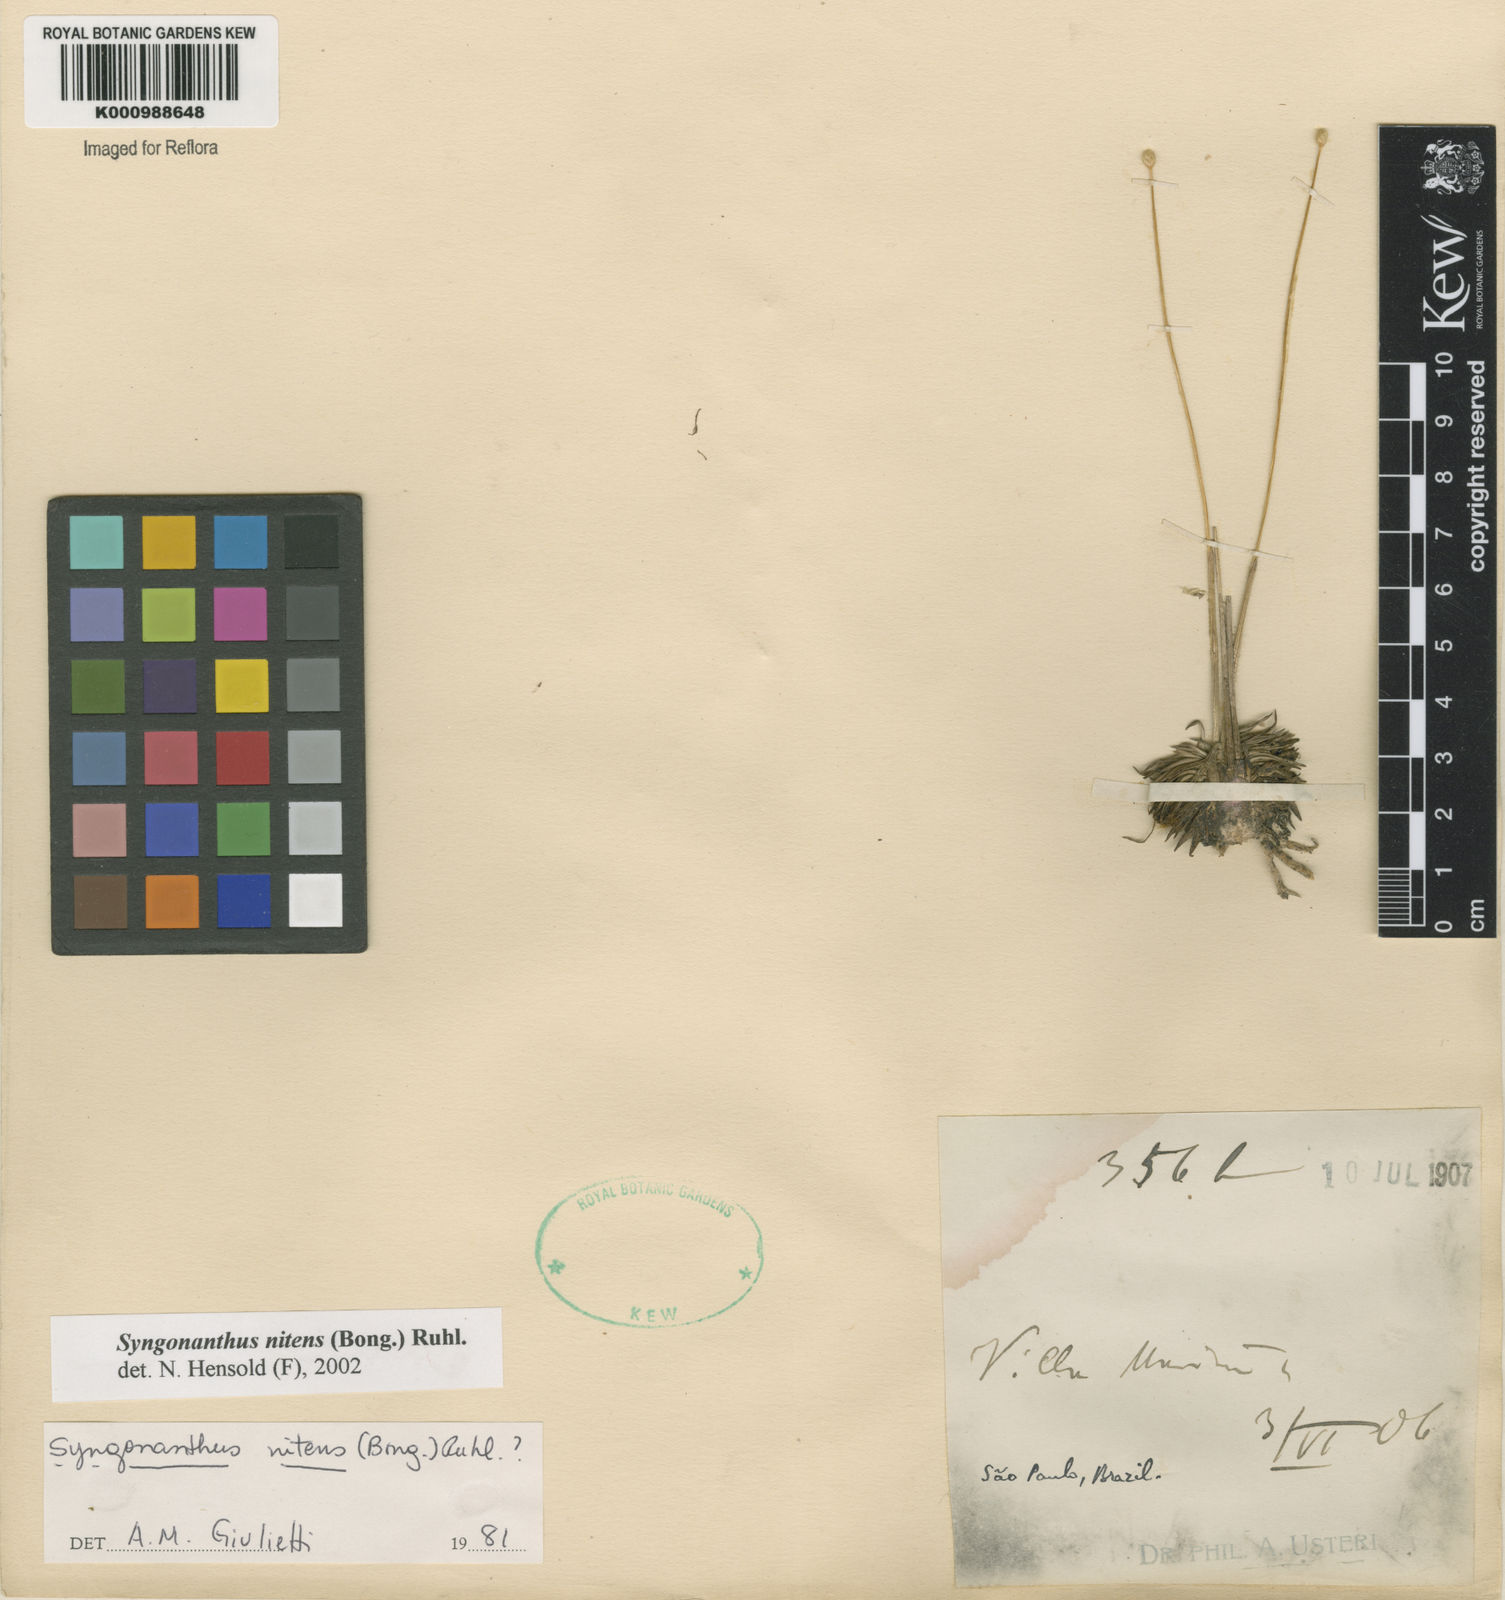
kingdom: Plantae
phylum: Tracheophyta
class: Liliopsida
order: Poales
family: Eriocaulaceae
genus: Syngonanthus
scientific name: Syngonanthus nitens
